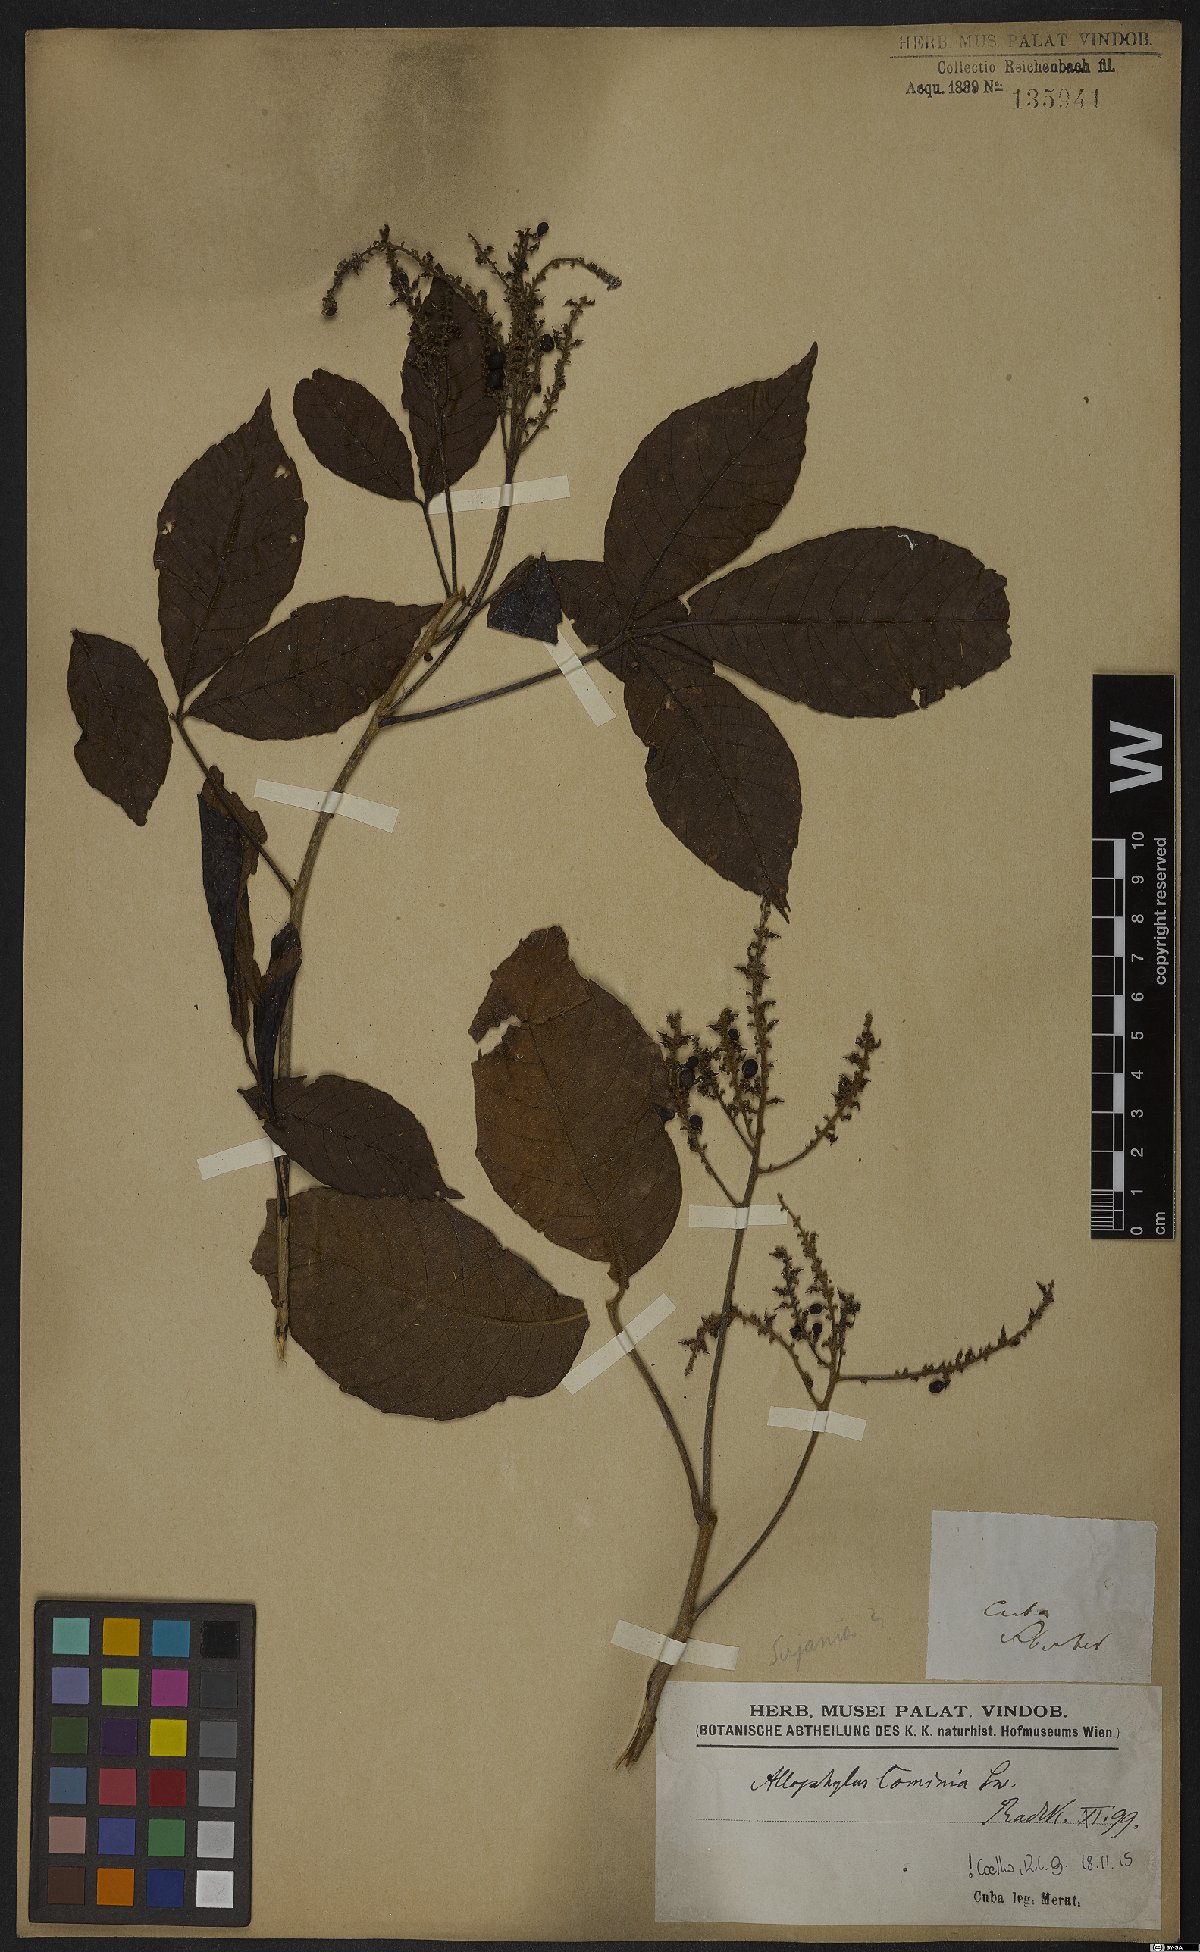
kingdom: Plantae
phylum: Tracheophyta
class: Magnoliopsida
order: Sapindales
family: Sapindaceae
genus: Allophylus
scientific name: Allophylus cominia
